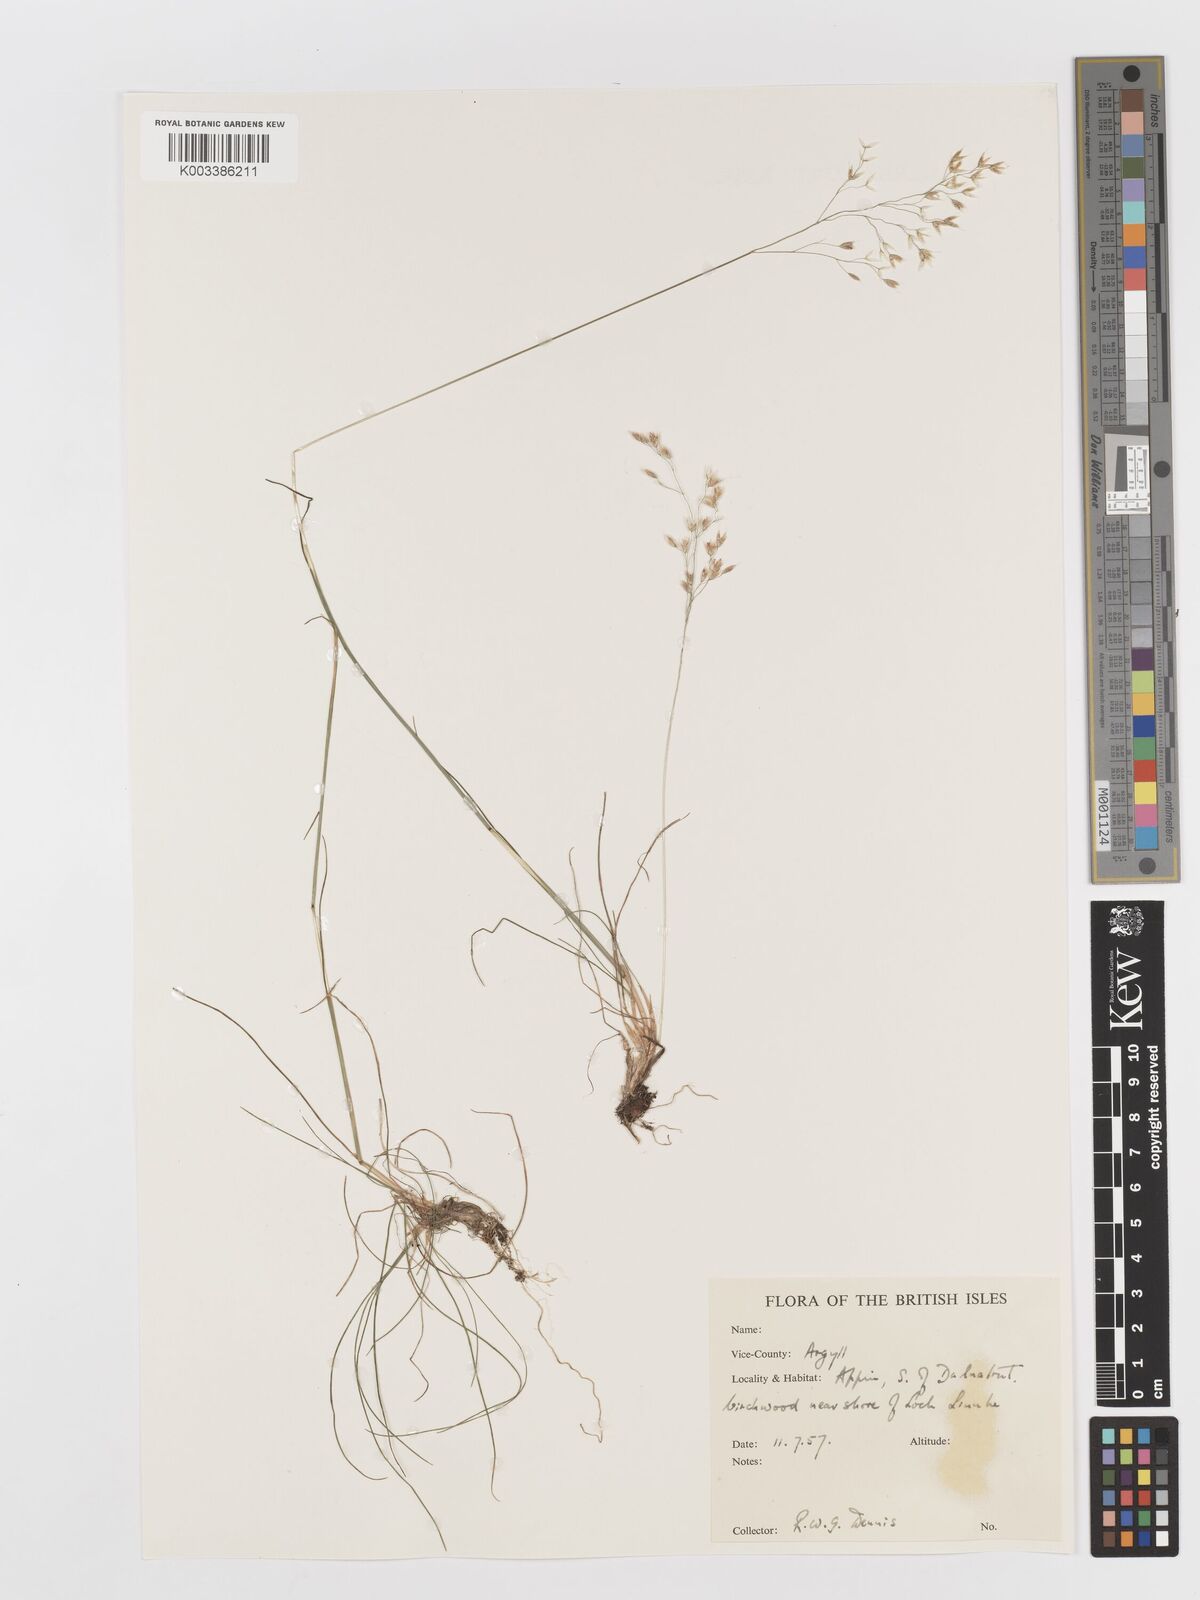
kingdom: Plantae
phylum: Tracheophyta
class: Liliopsida
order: Poales
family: Poaceae
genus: Deschampsia
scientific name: Deschampsia
